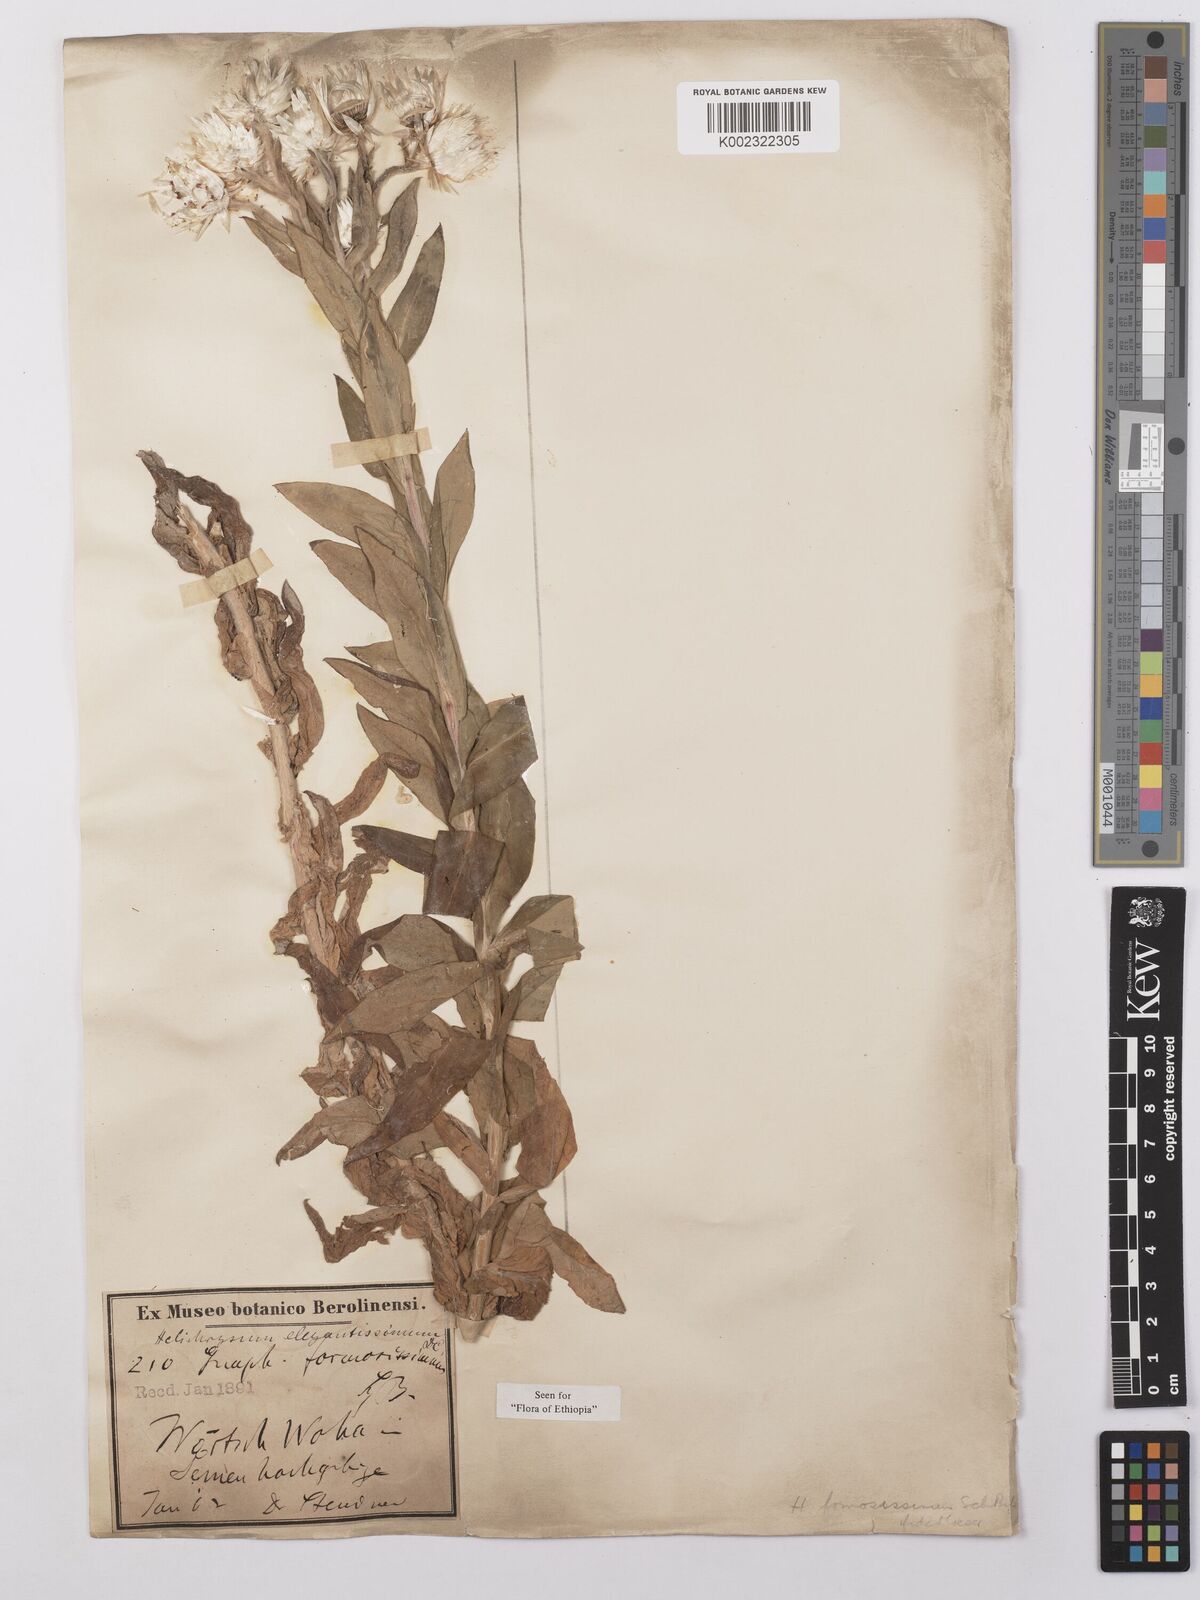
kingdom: Plantae
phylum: Tracheophyta
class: Magnoliopsida
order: Asterales
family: Asteraceae
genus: Helichrysum
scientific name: Helichrysum formosissimum
